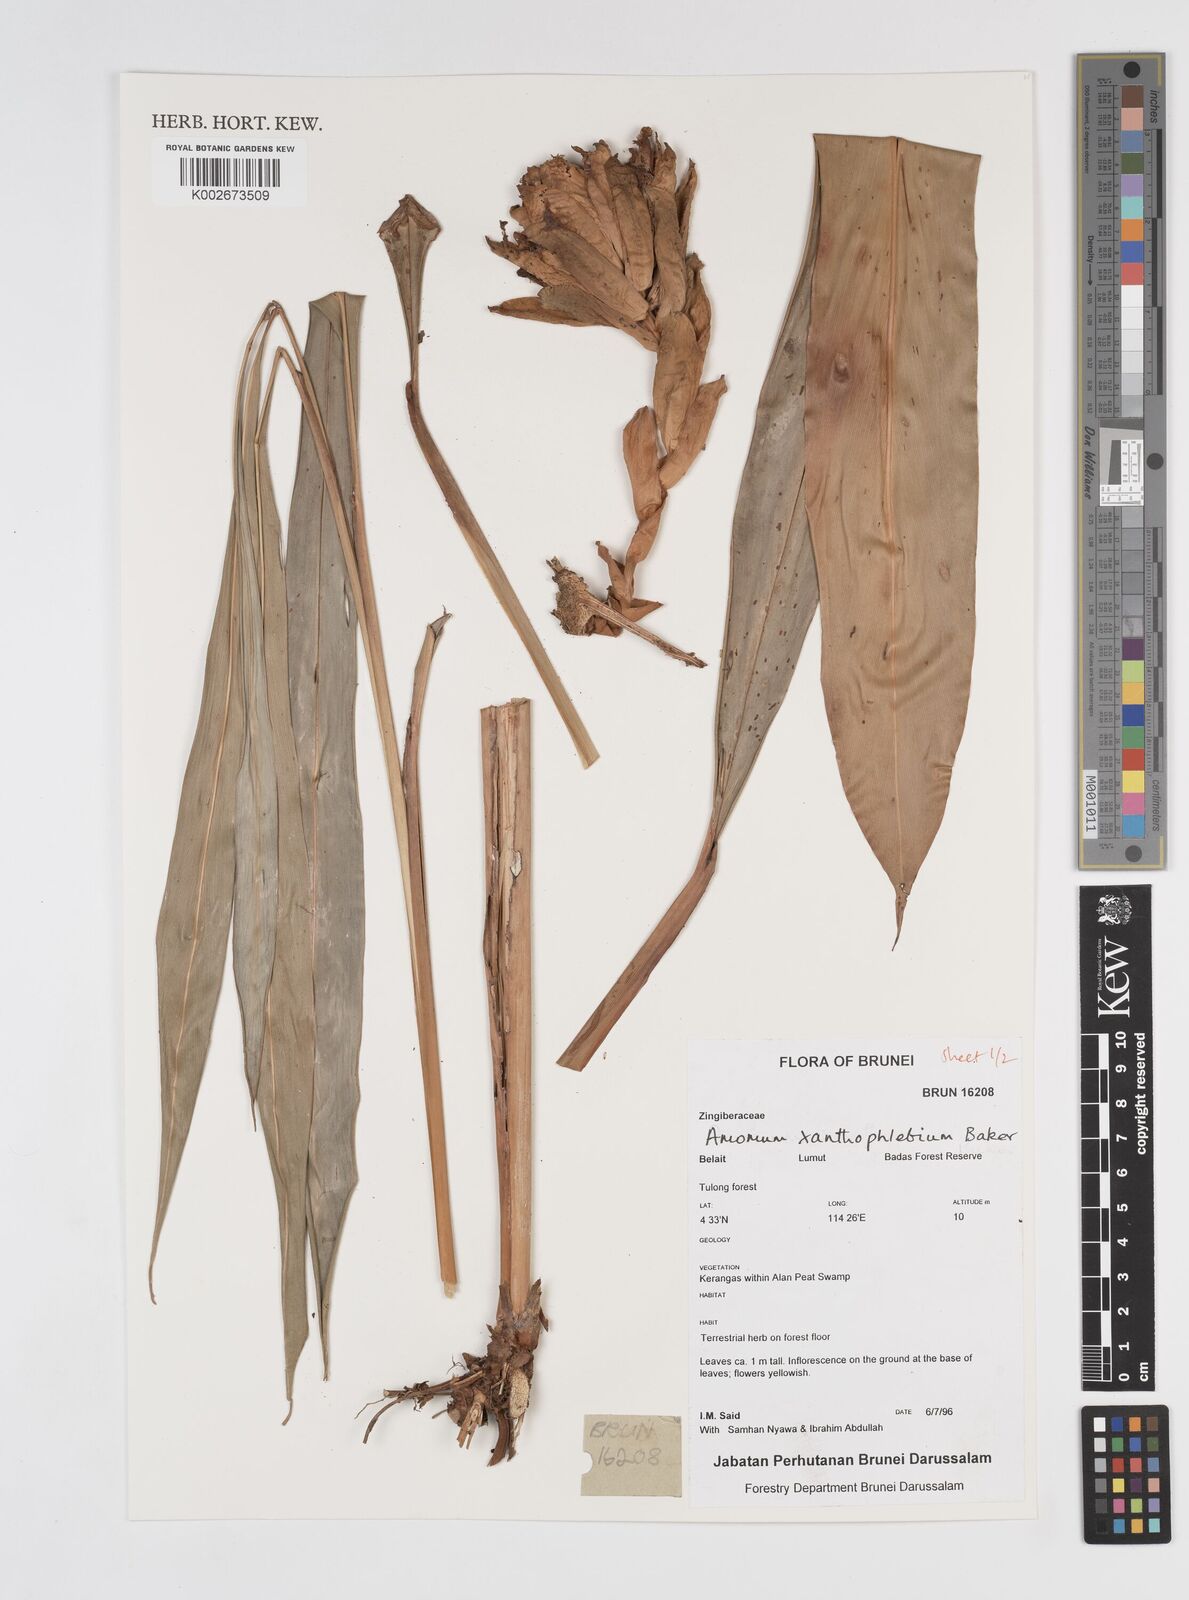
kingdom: Plantae
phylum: Tracheophyta
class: Liliopsida
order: Zingiberales
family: Zingiberaceae
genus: Conamomum
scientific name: Conamomum xanthophlebium
